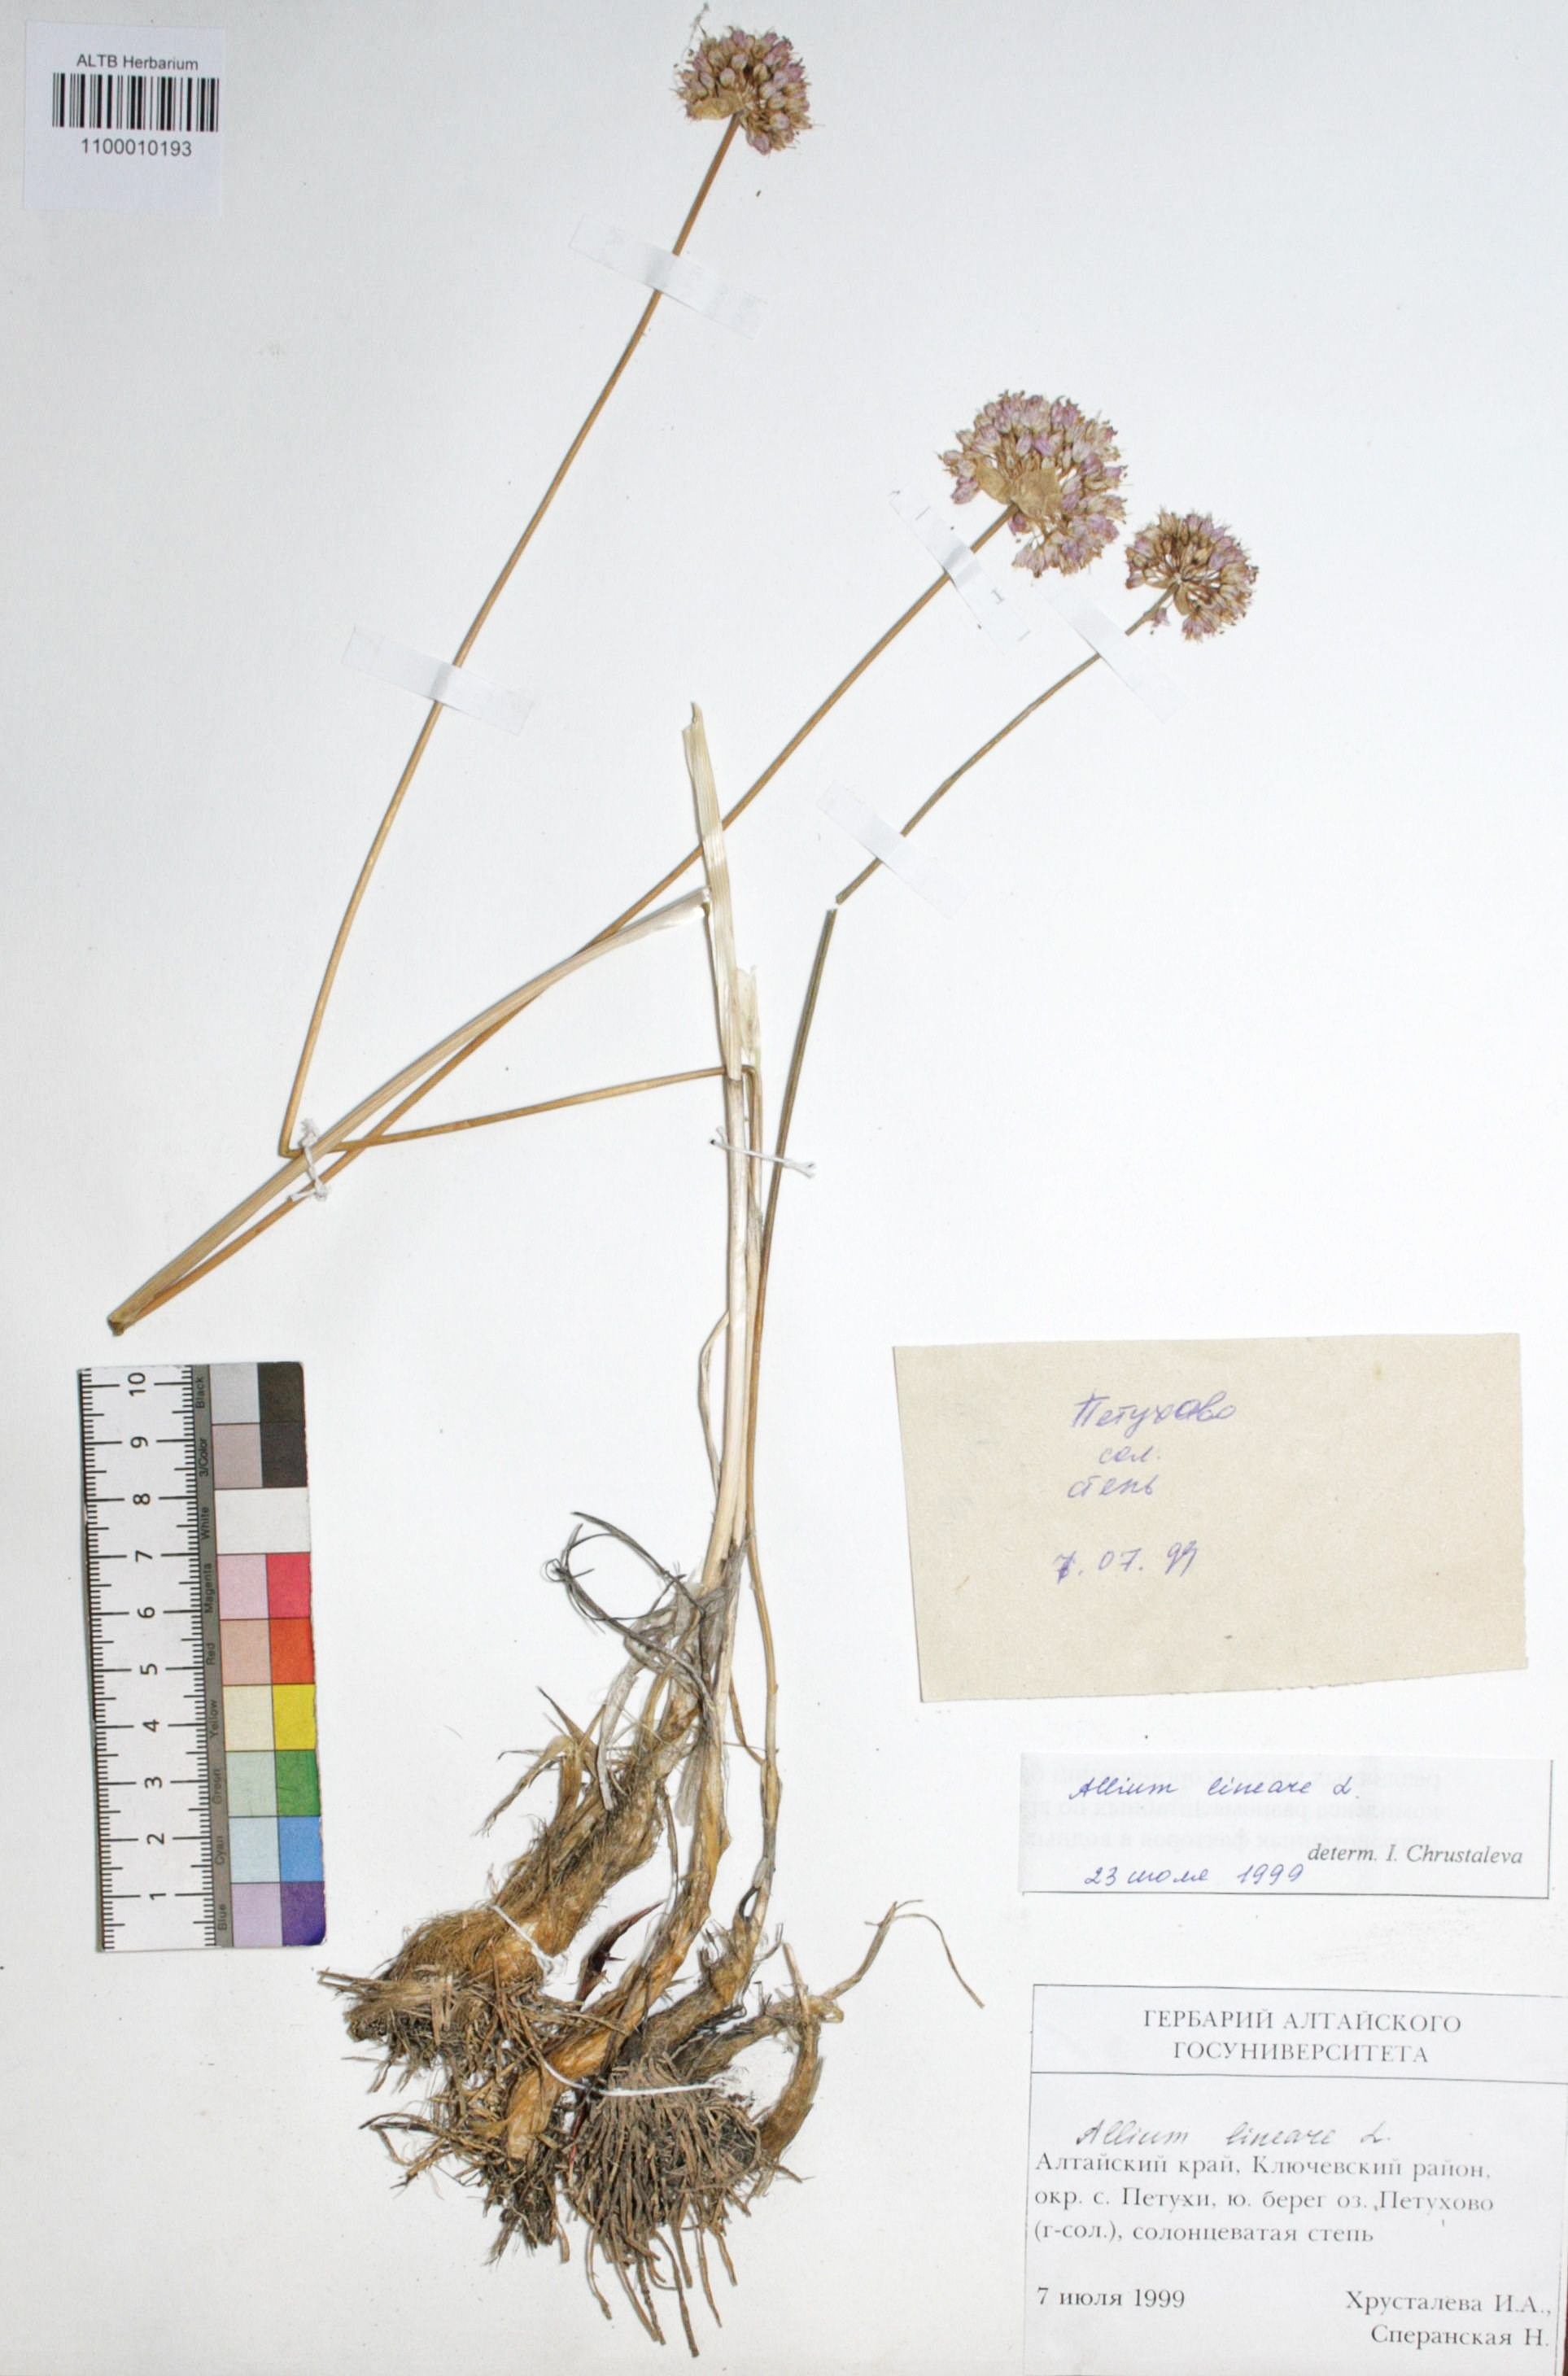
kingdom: Plantae
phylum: Tracheophyta
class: Liliopsida
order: Asparagales
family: Amaryllidaceae
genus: Allium
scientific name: Allium lineare
